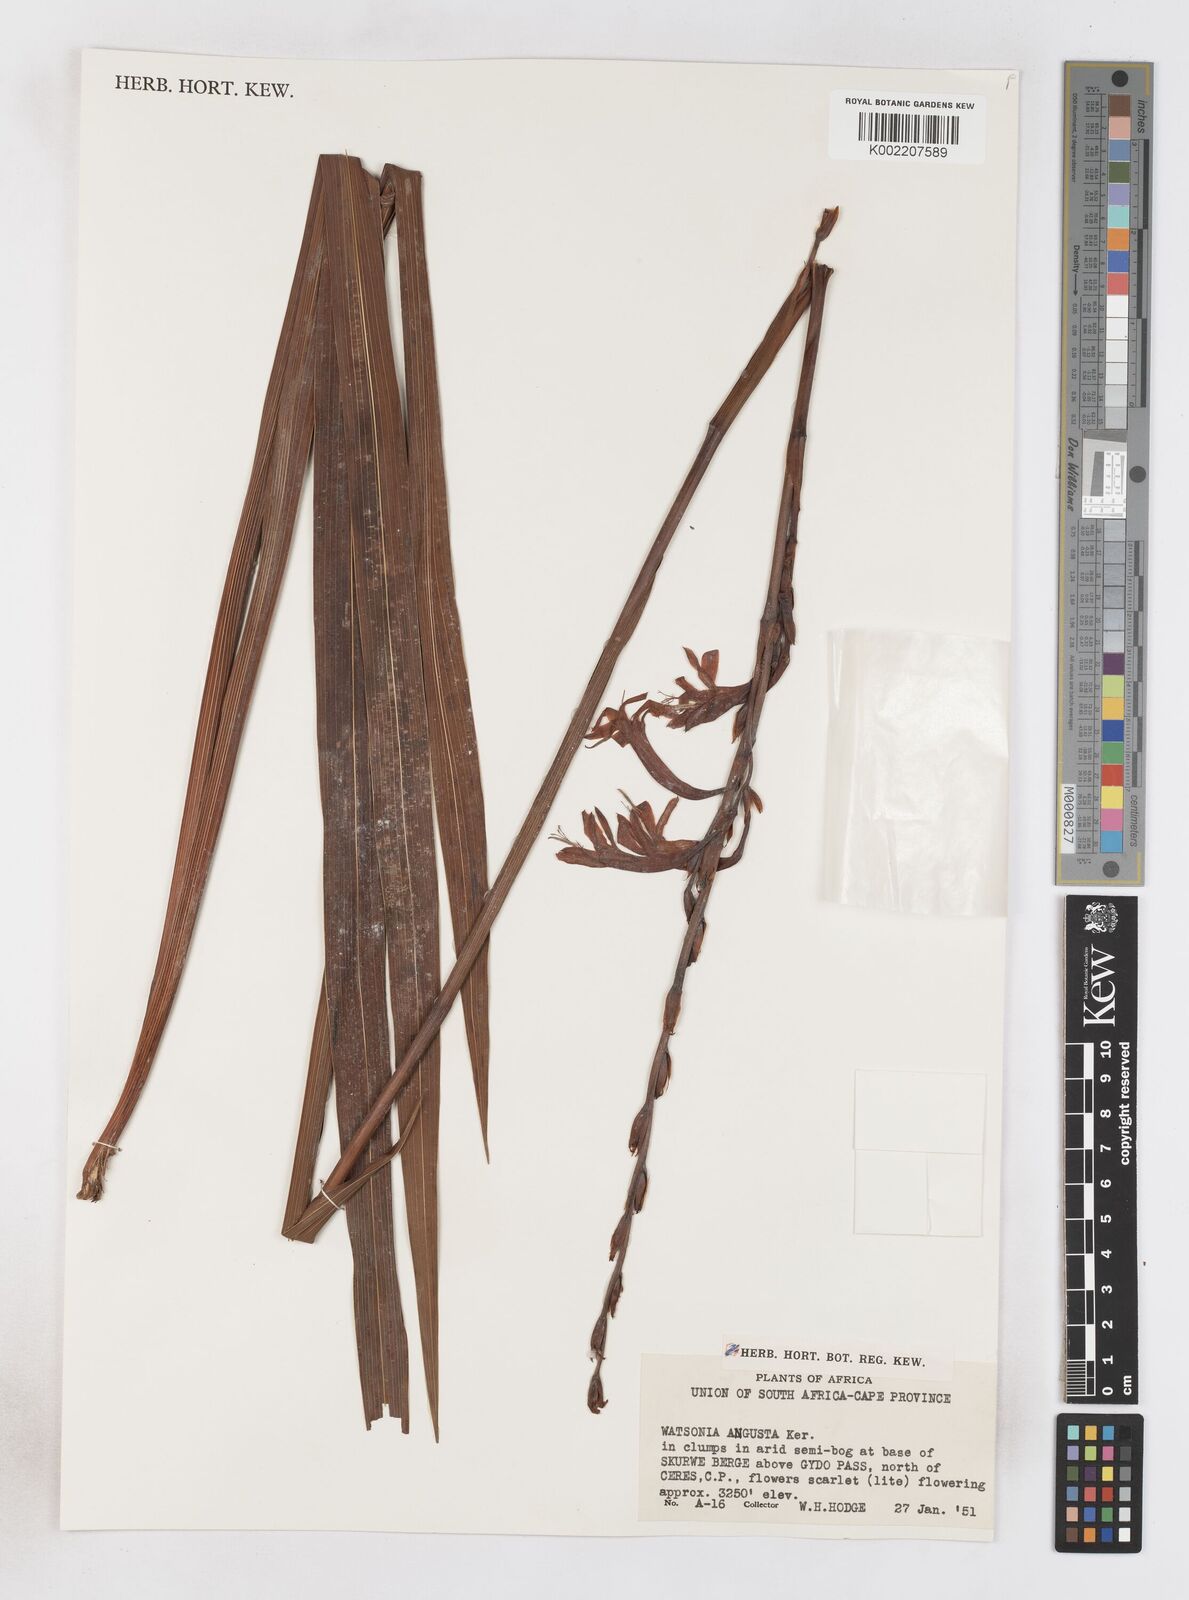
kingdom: Plantae
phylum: Tracheophyta
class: Liliopsida
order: Asparagales
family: Iridaceae
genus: Watsonia
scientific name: Watsonia angusta
